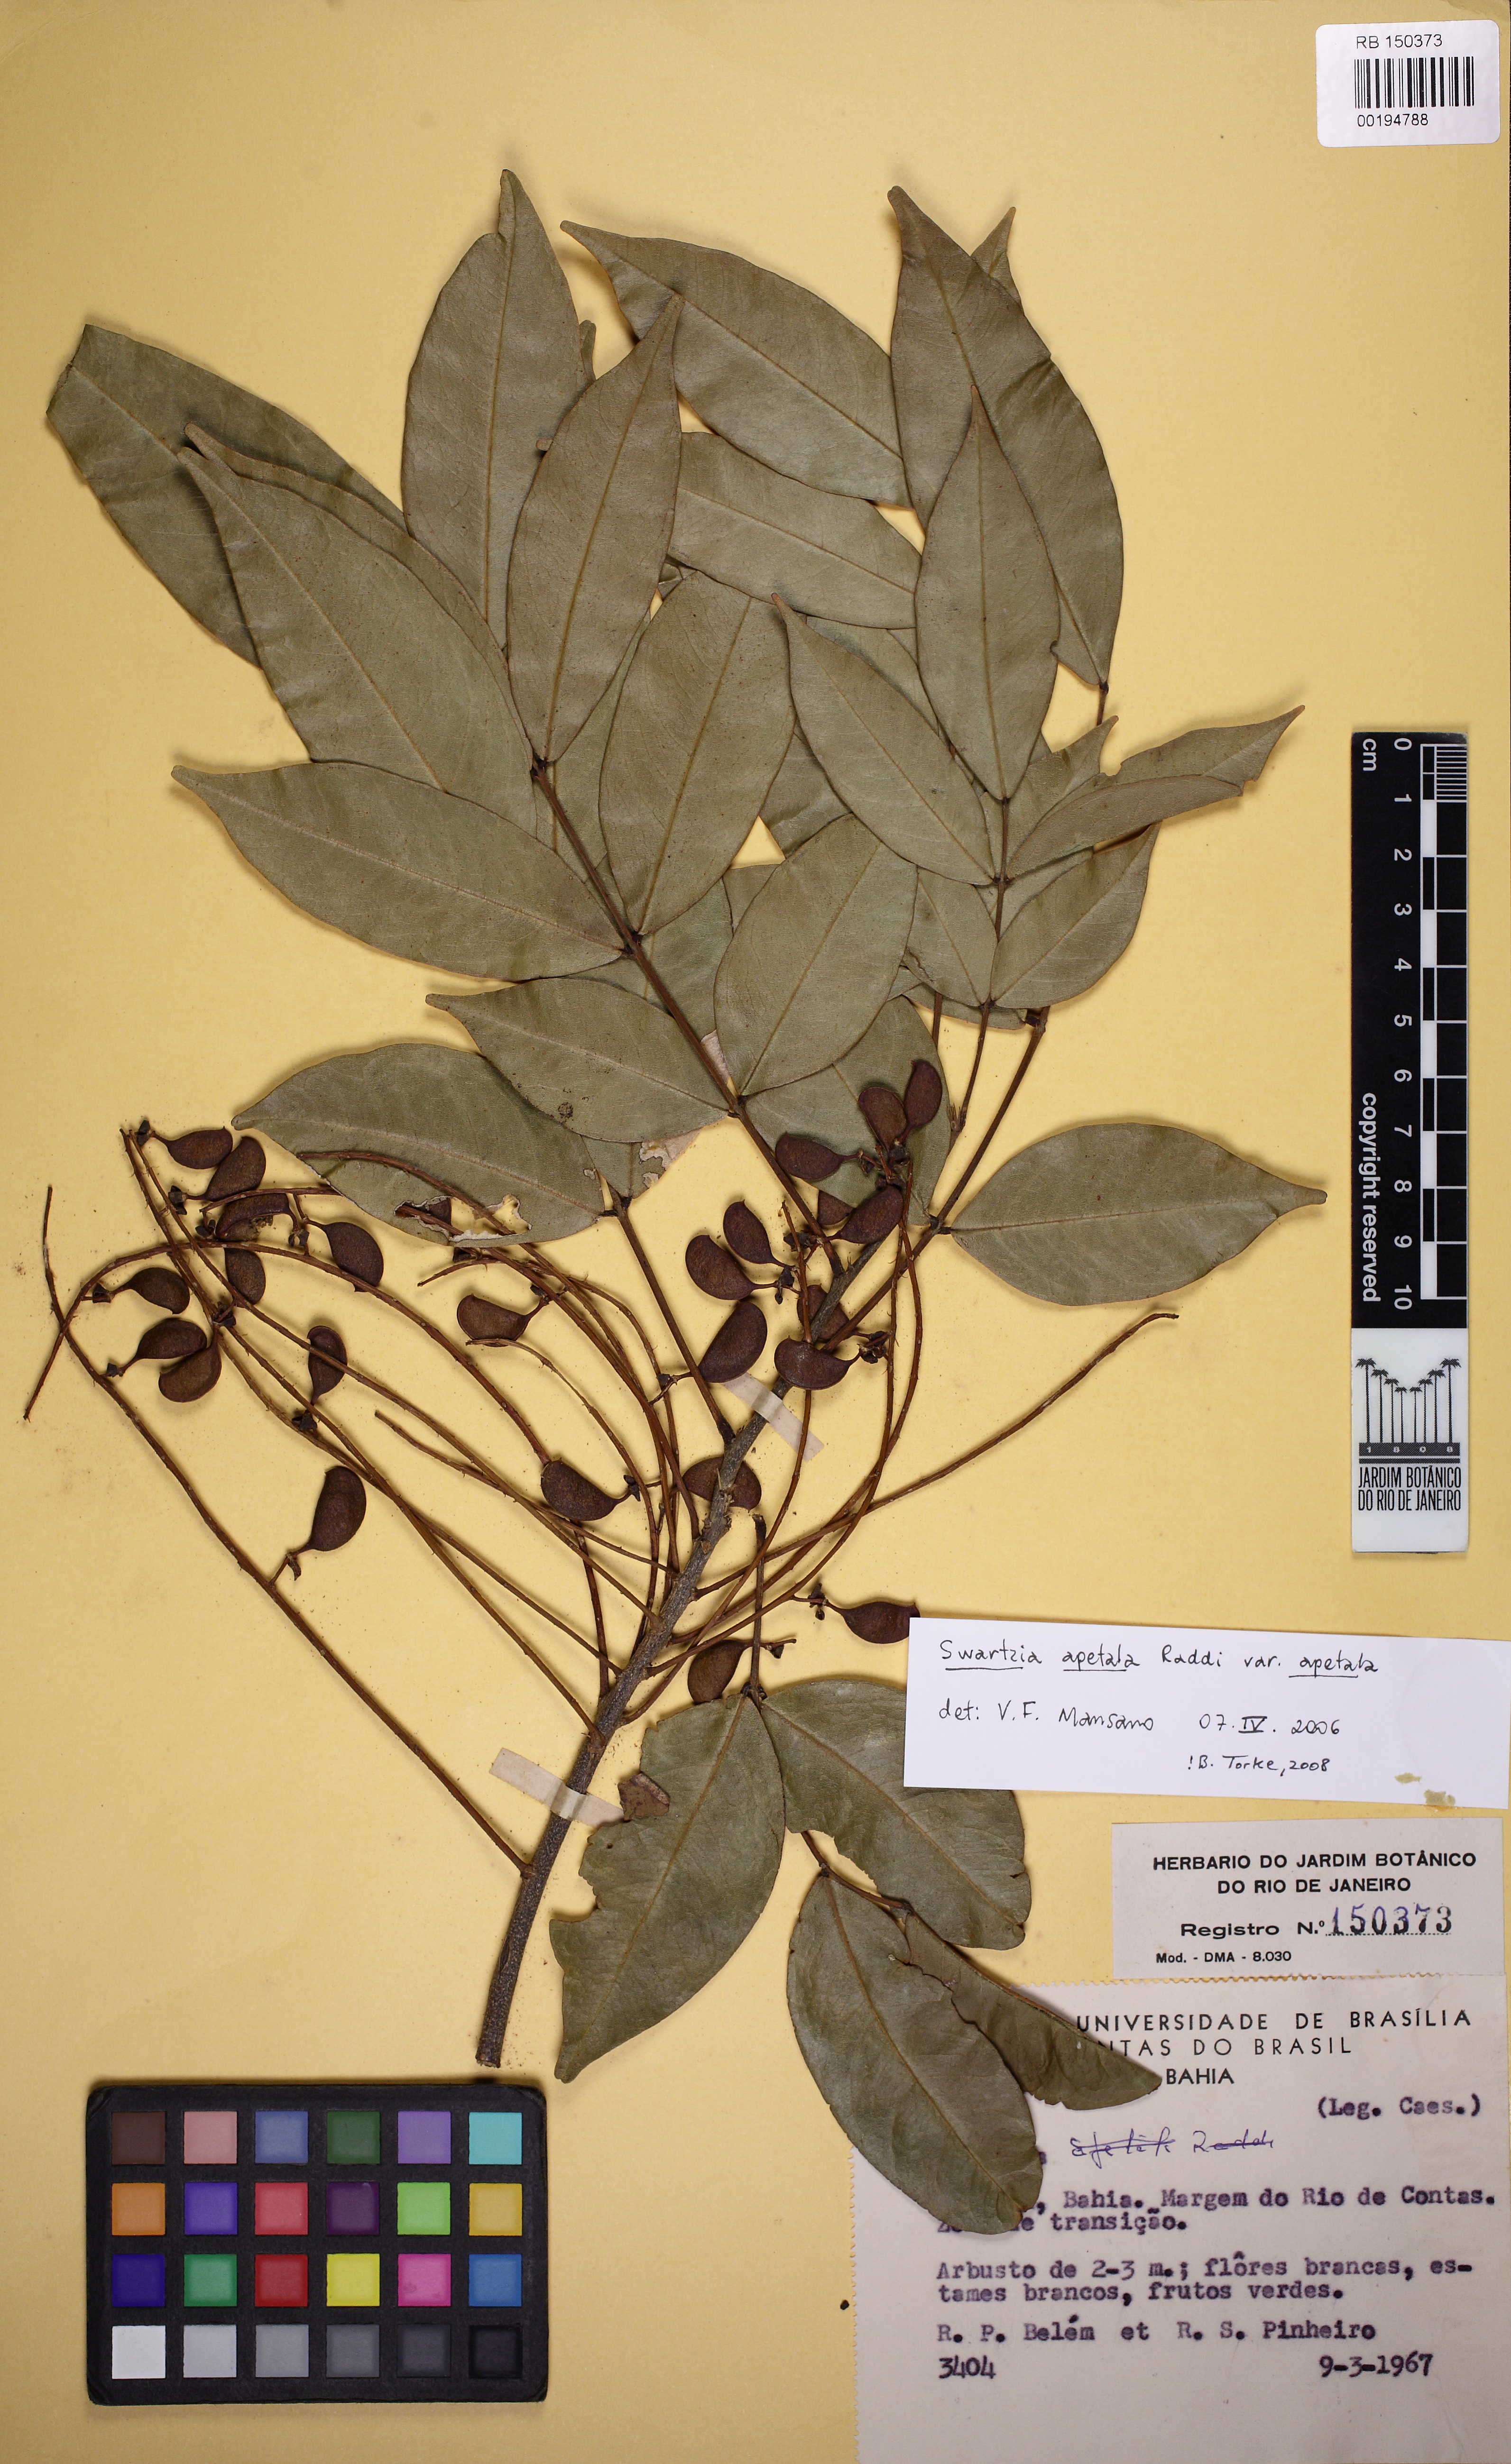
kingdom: Plantae
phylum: Tracheophyta
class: Magnoliopsida
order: Fabales
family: Fabaceae
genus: Swartzia
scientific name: Swartzia apetala
